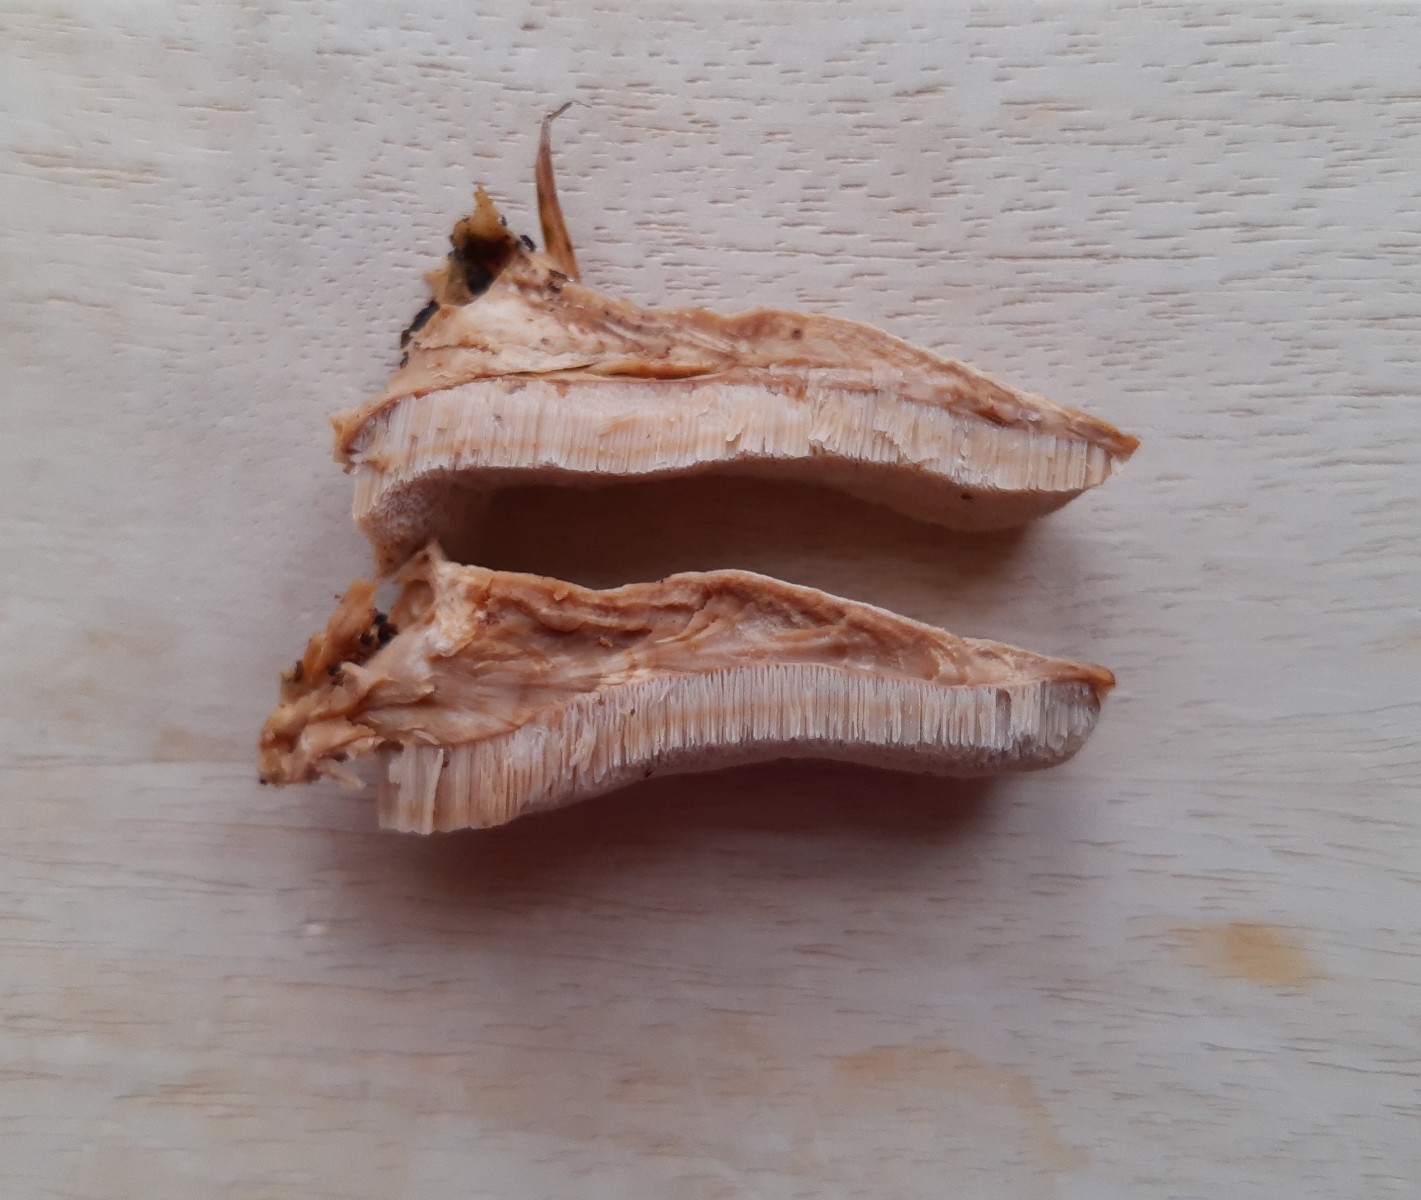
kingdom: Fungi
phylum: Basidiomycota
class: Agaricomycetes
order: Polyporales
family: Phanerochaetaceae
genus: Bjerkandera
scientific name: Bjerkandera fumosa
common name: grågul sodporesvamp
